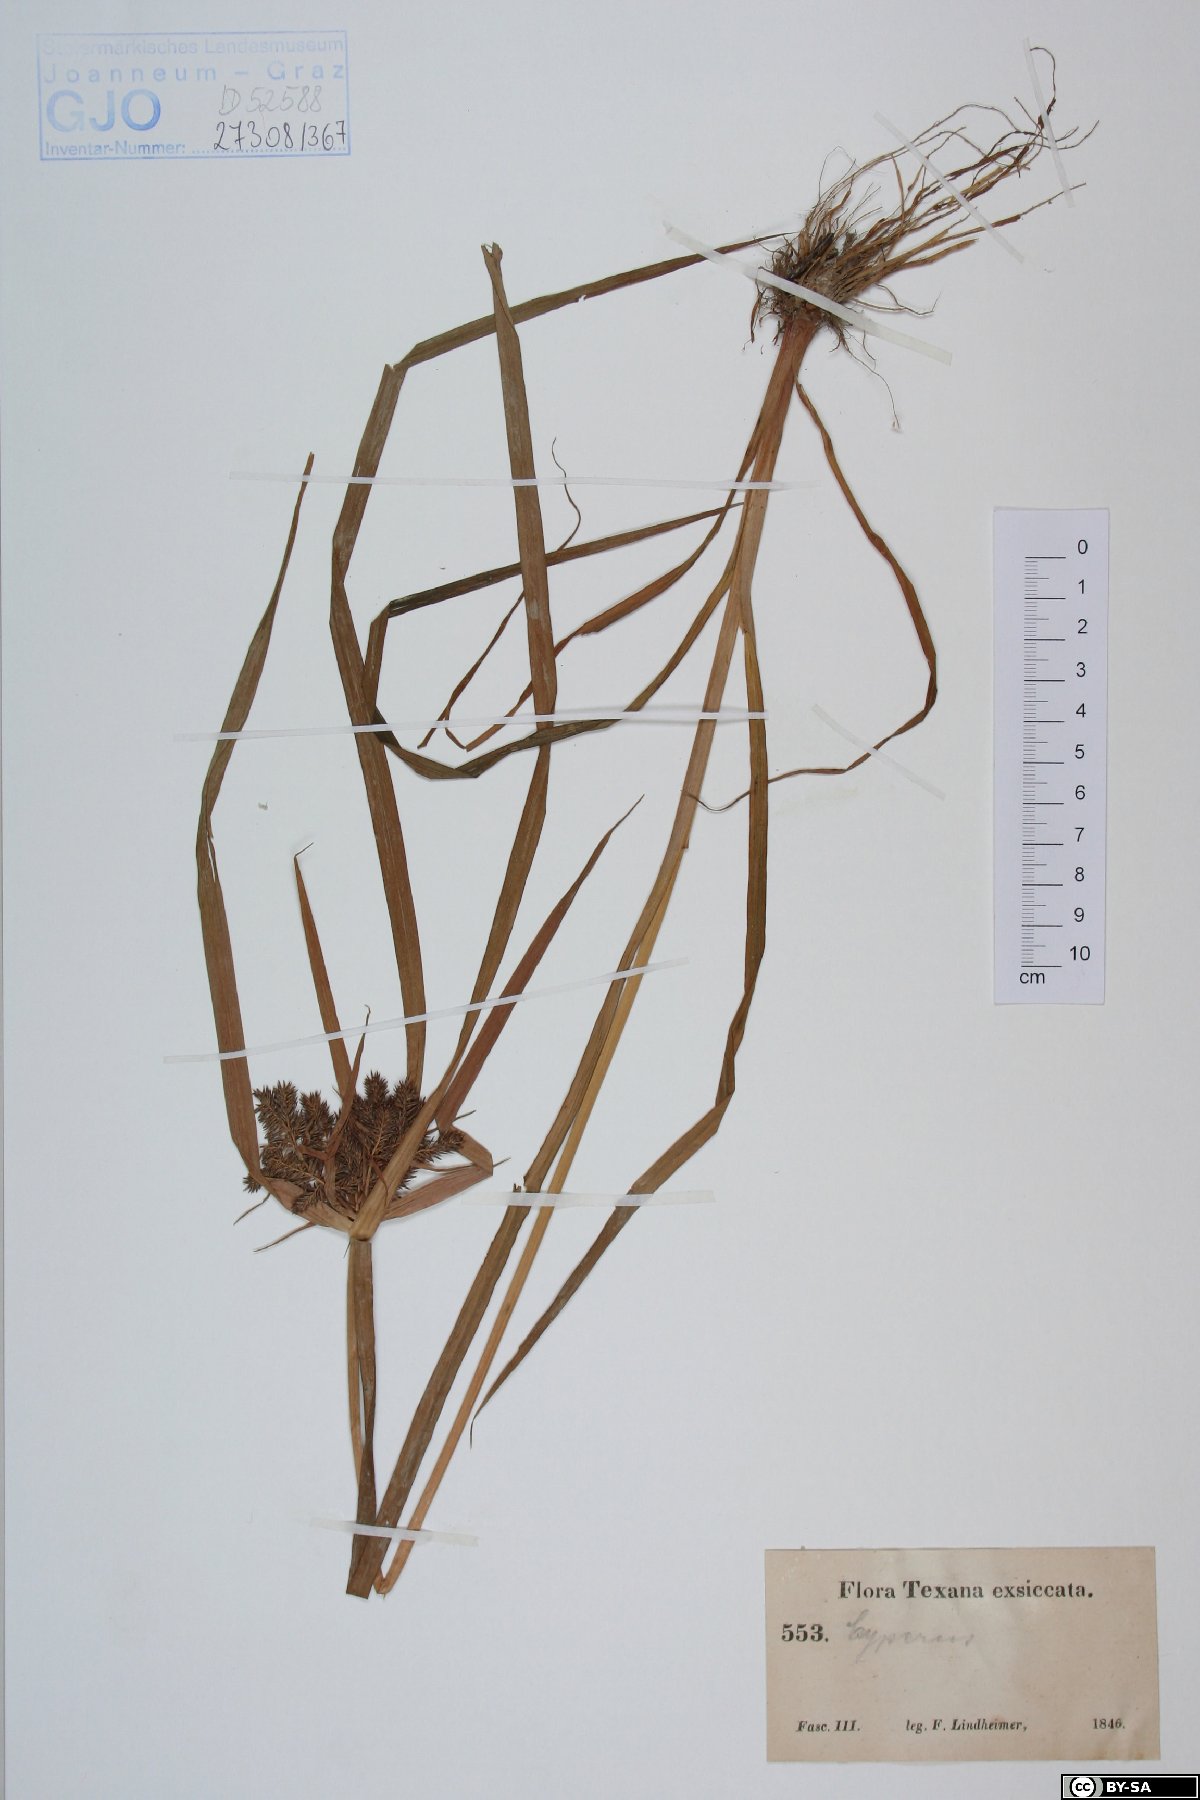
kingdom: Plantae
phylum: Tracheophyta
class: Liliopsida
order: Poales
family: Cyperaceae
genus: Cyperus
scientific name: Cyperus
